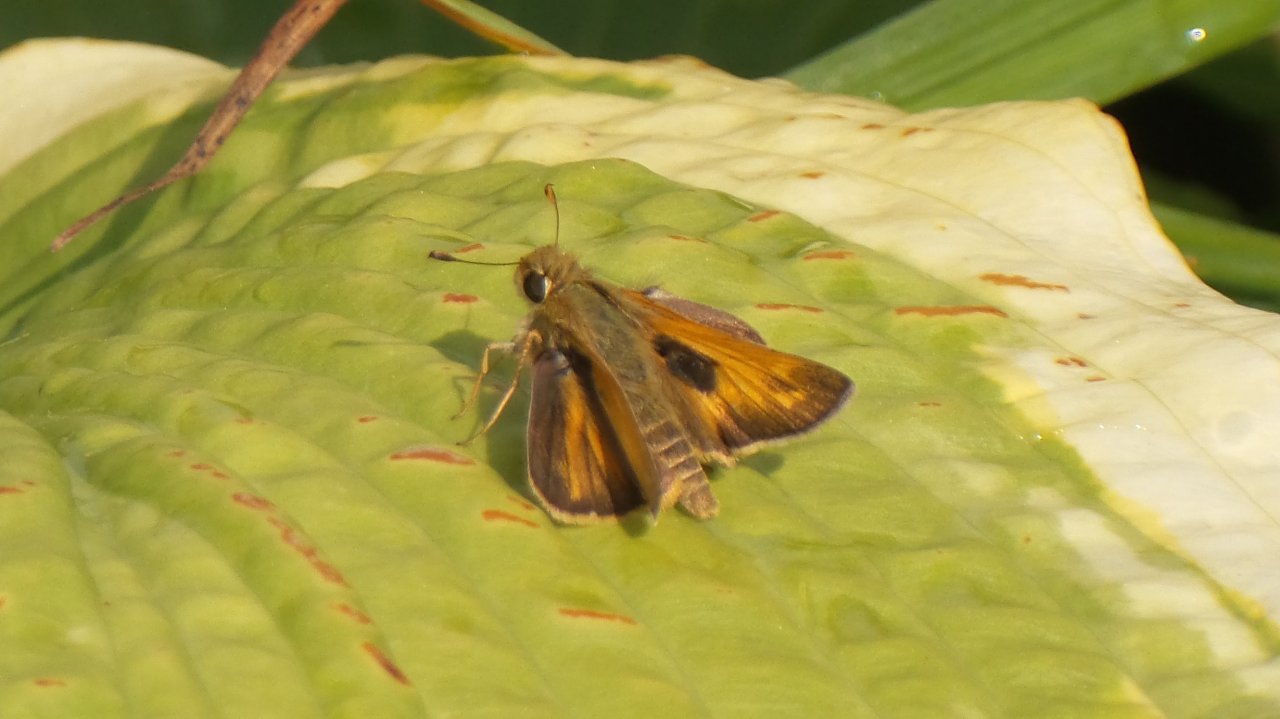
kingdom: Animalia
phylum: Arthropoda
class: Insecta
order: Lepidoptera
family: Hesperiidae
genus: Atalopedes
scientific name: Atalopedes campestris
